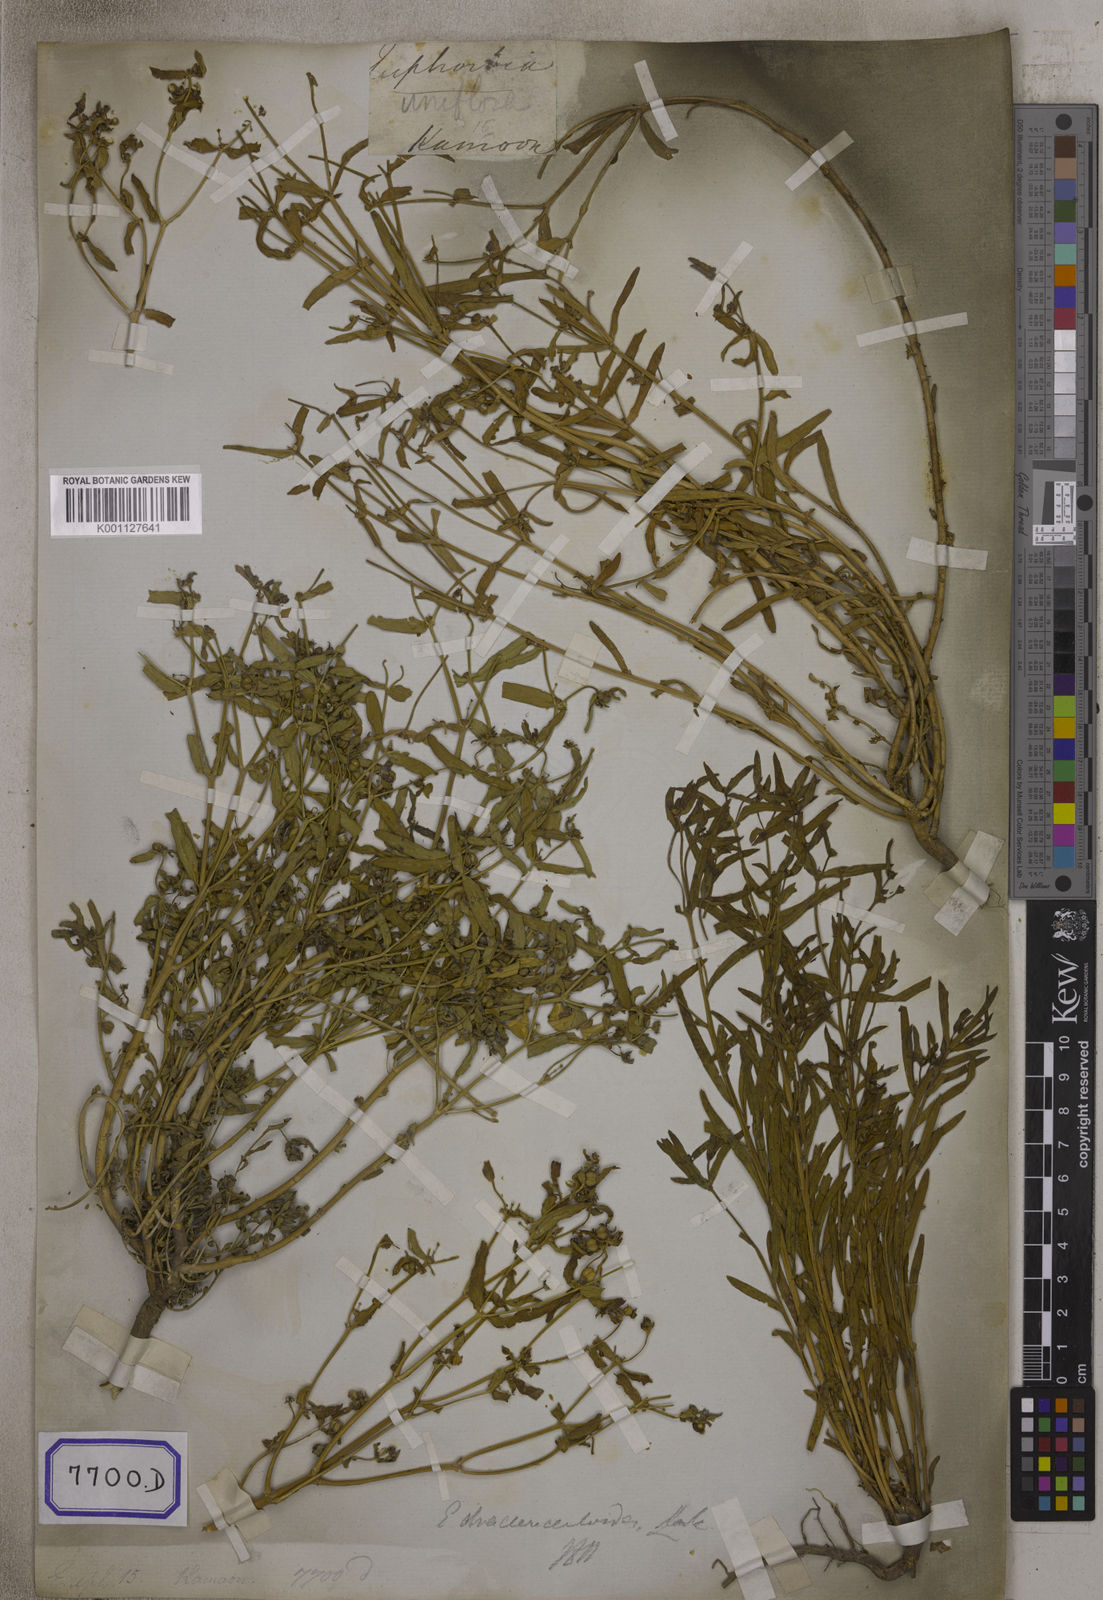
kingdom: Plantae
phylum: Tracheophyta
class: Magnoliopsida
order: Malpighiales
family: Euphorbiaceae
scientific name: Euphorbiaceae
